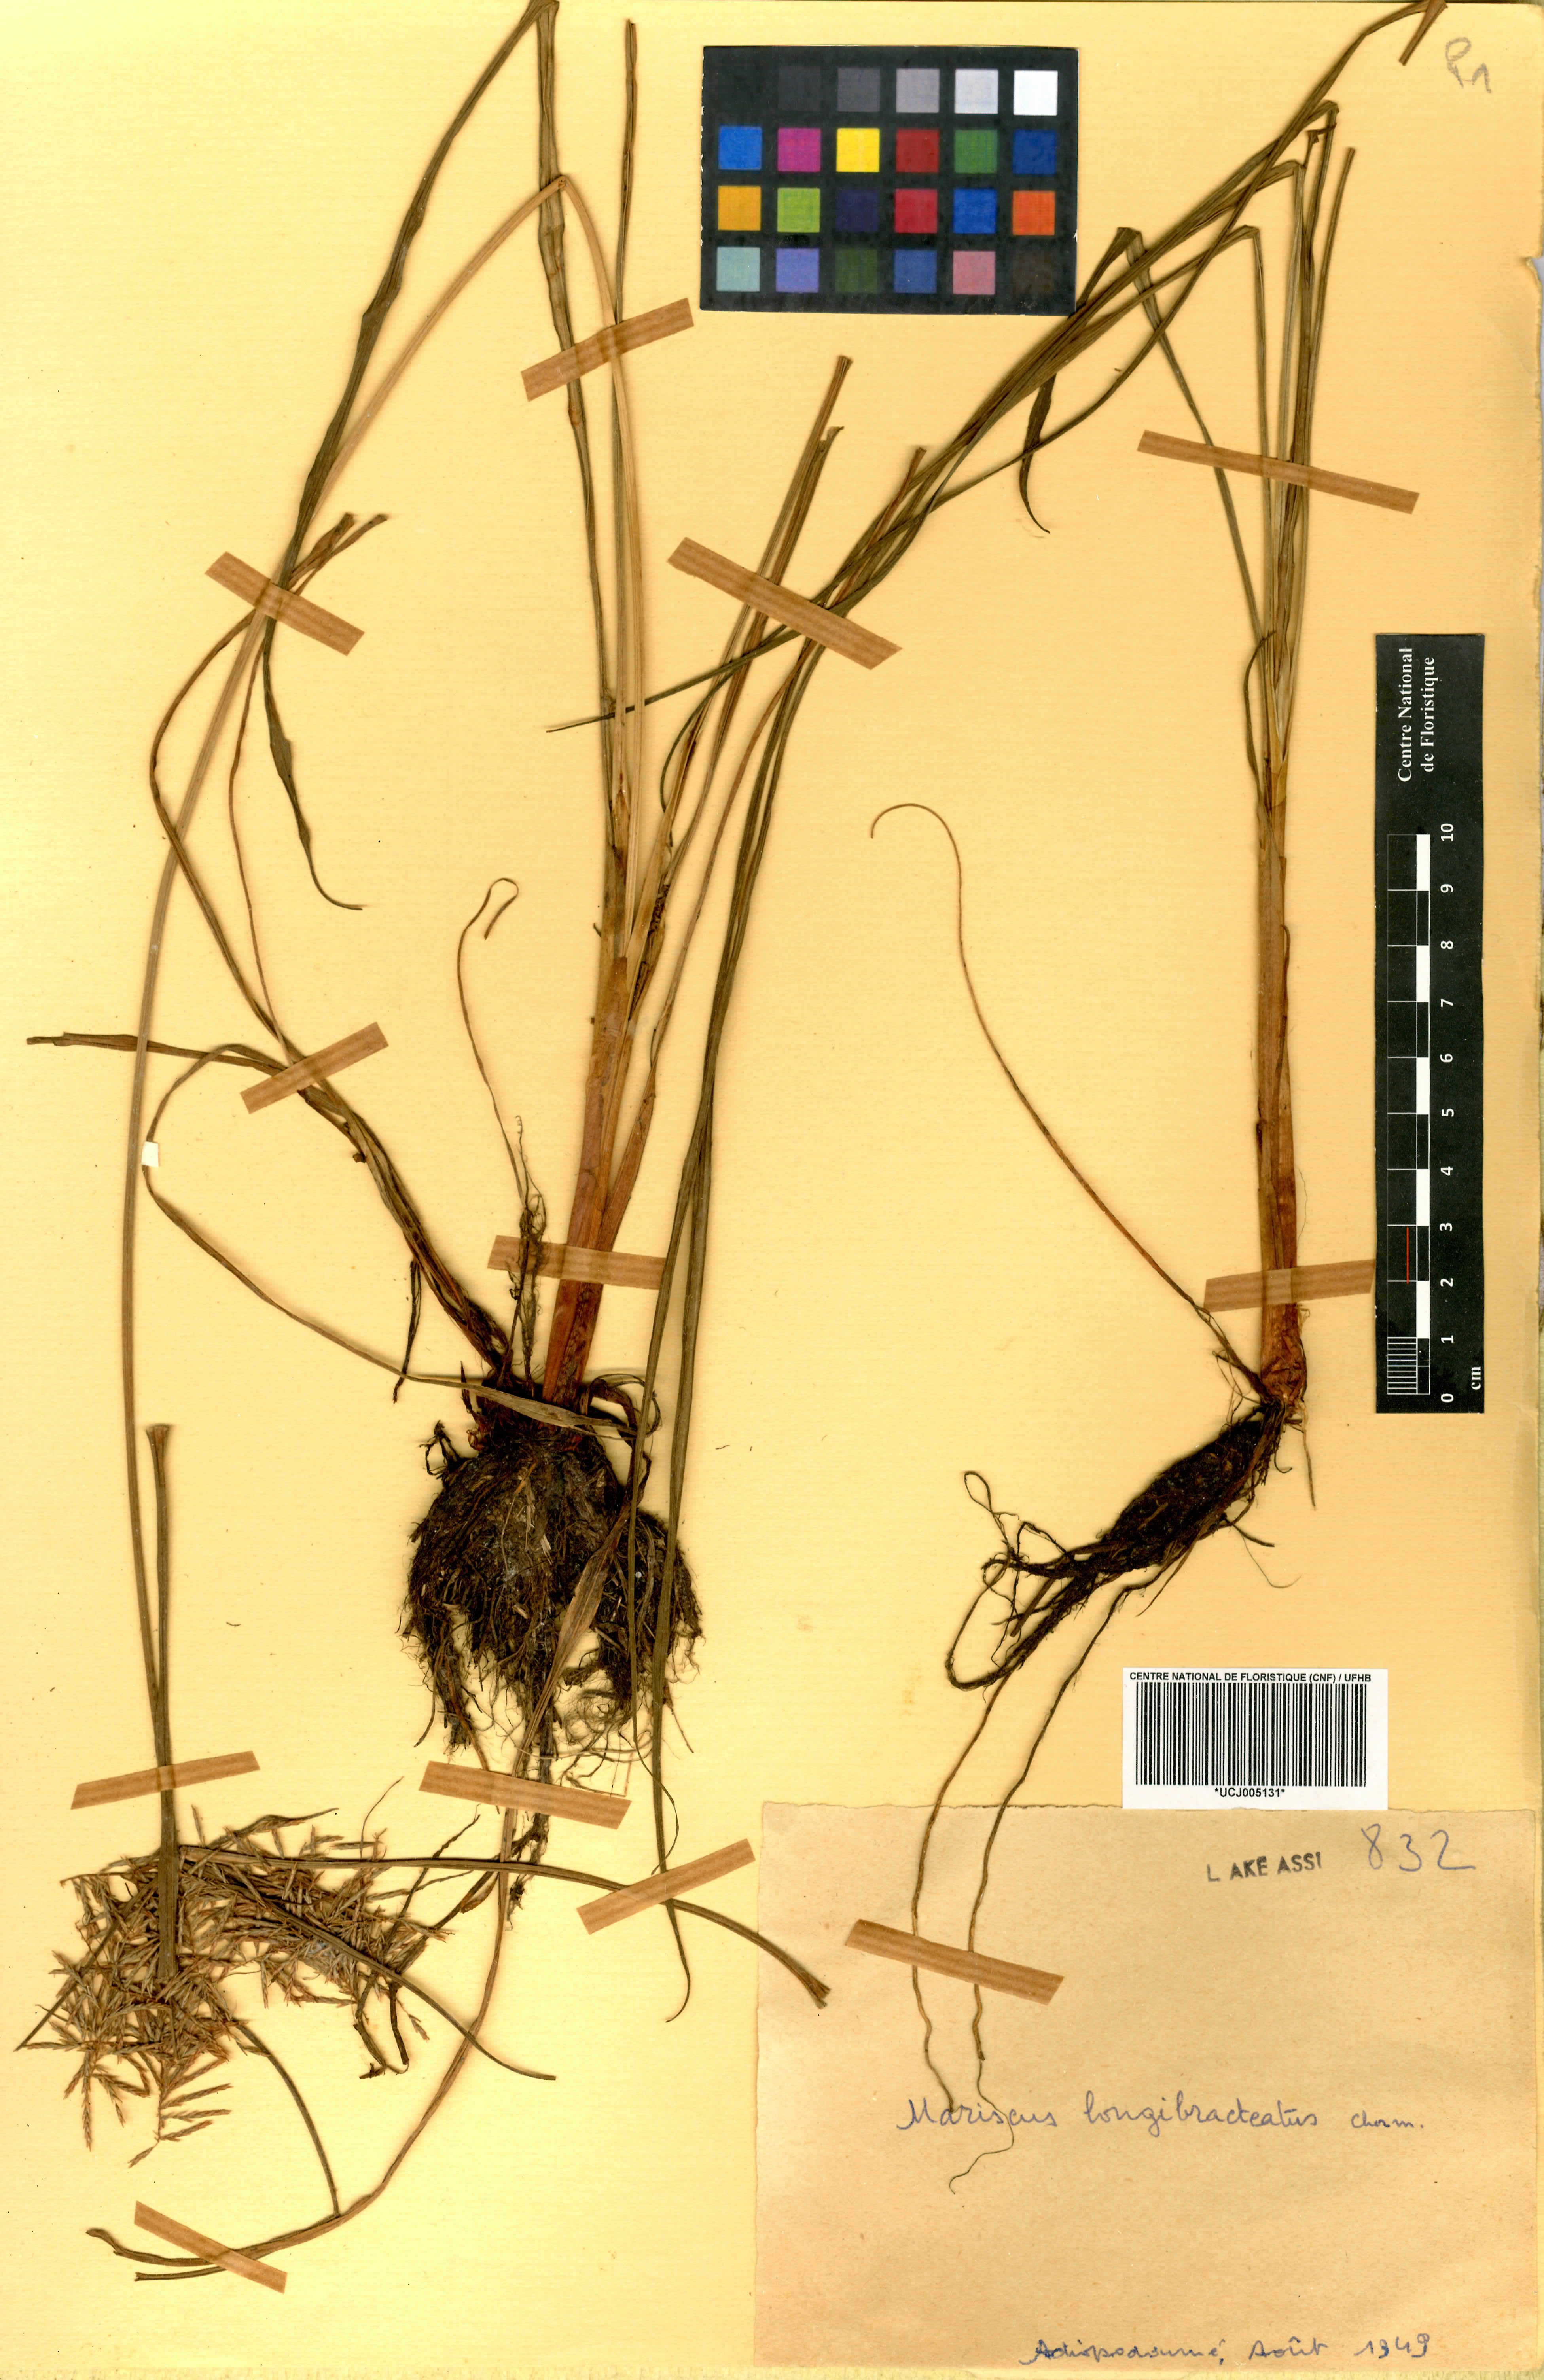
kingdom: Plantae
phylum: Tracheophyta
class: Liliopsida
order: Poales
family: Cyperaceae
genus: Cyperus
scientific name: Cyperus distans
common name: Slender cyperus
